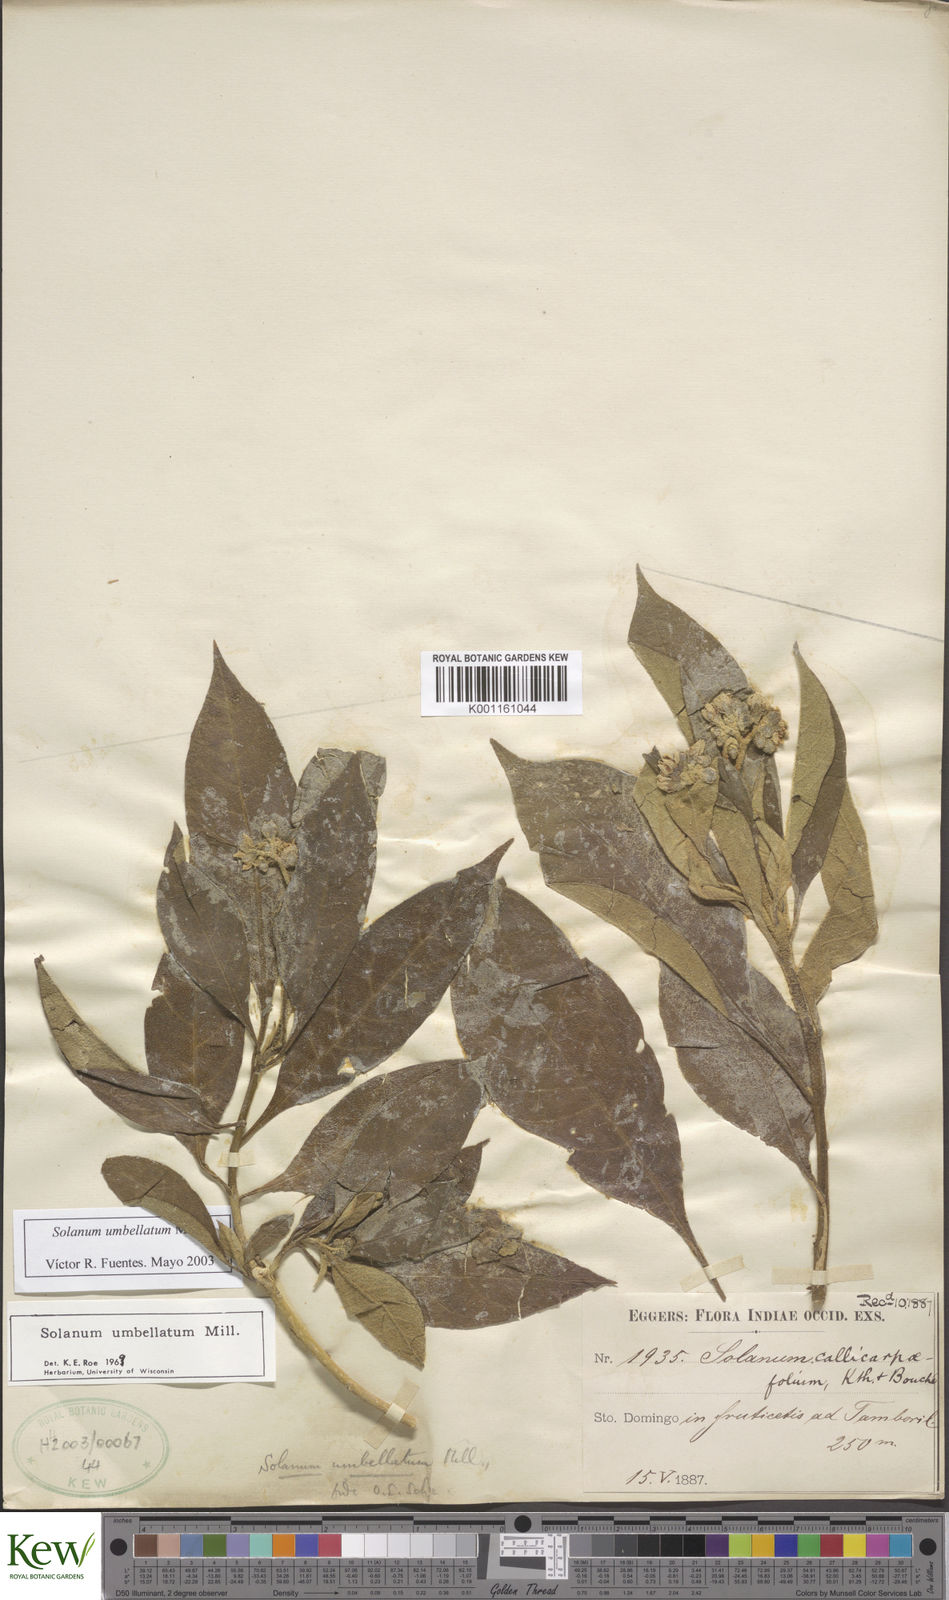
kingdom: Plantae
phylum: Tracheophyta
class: Magnoliopsida
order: Solanales
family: Solanaceae
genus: Solanum
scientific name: Solanum umbellatum
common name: Nightshade
